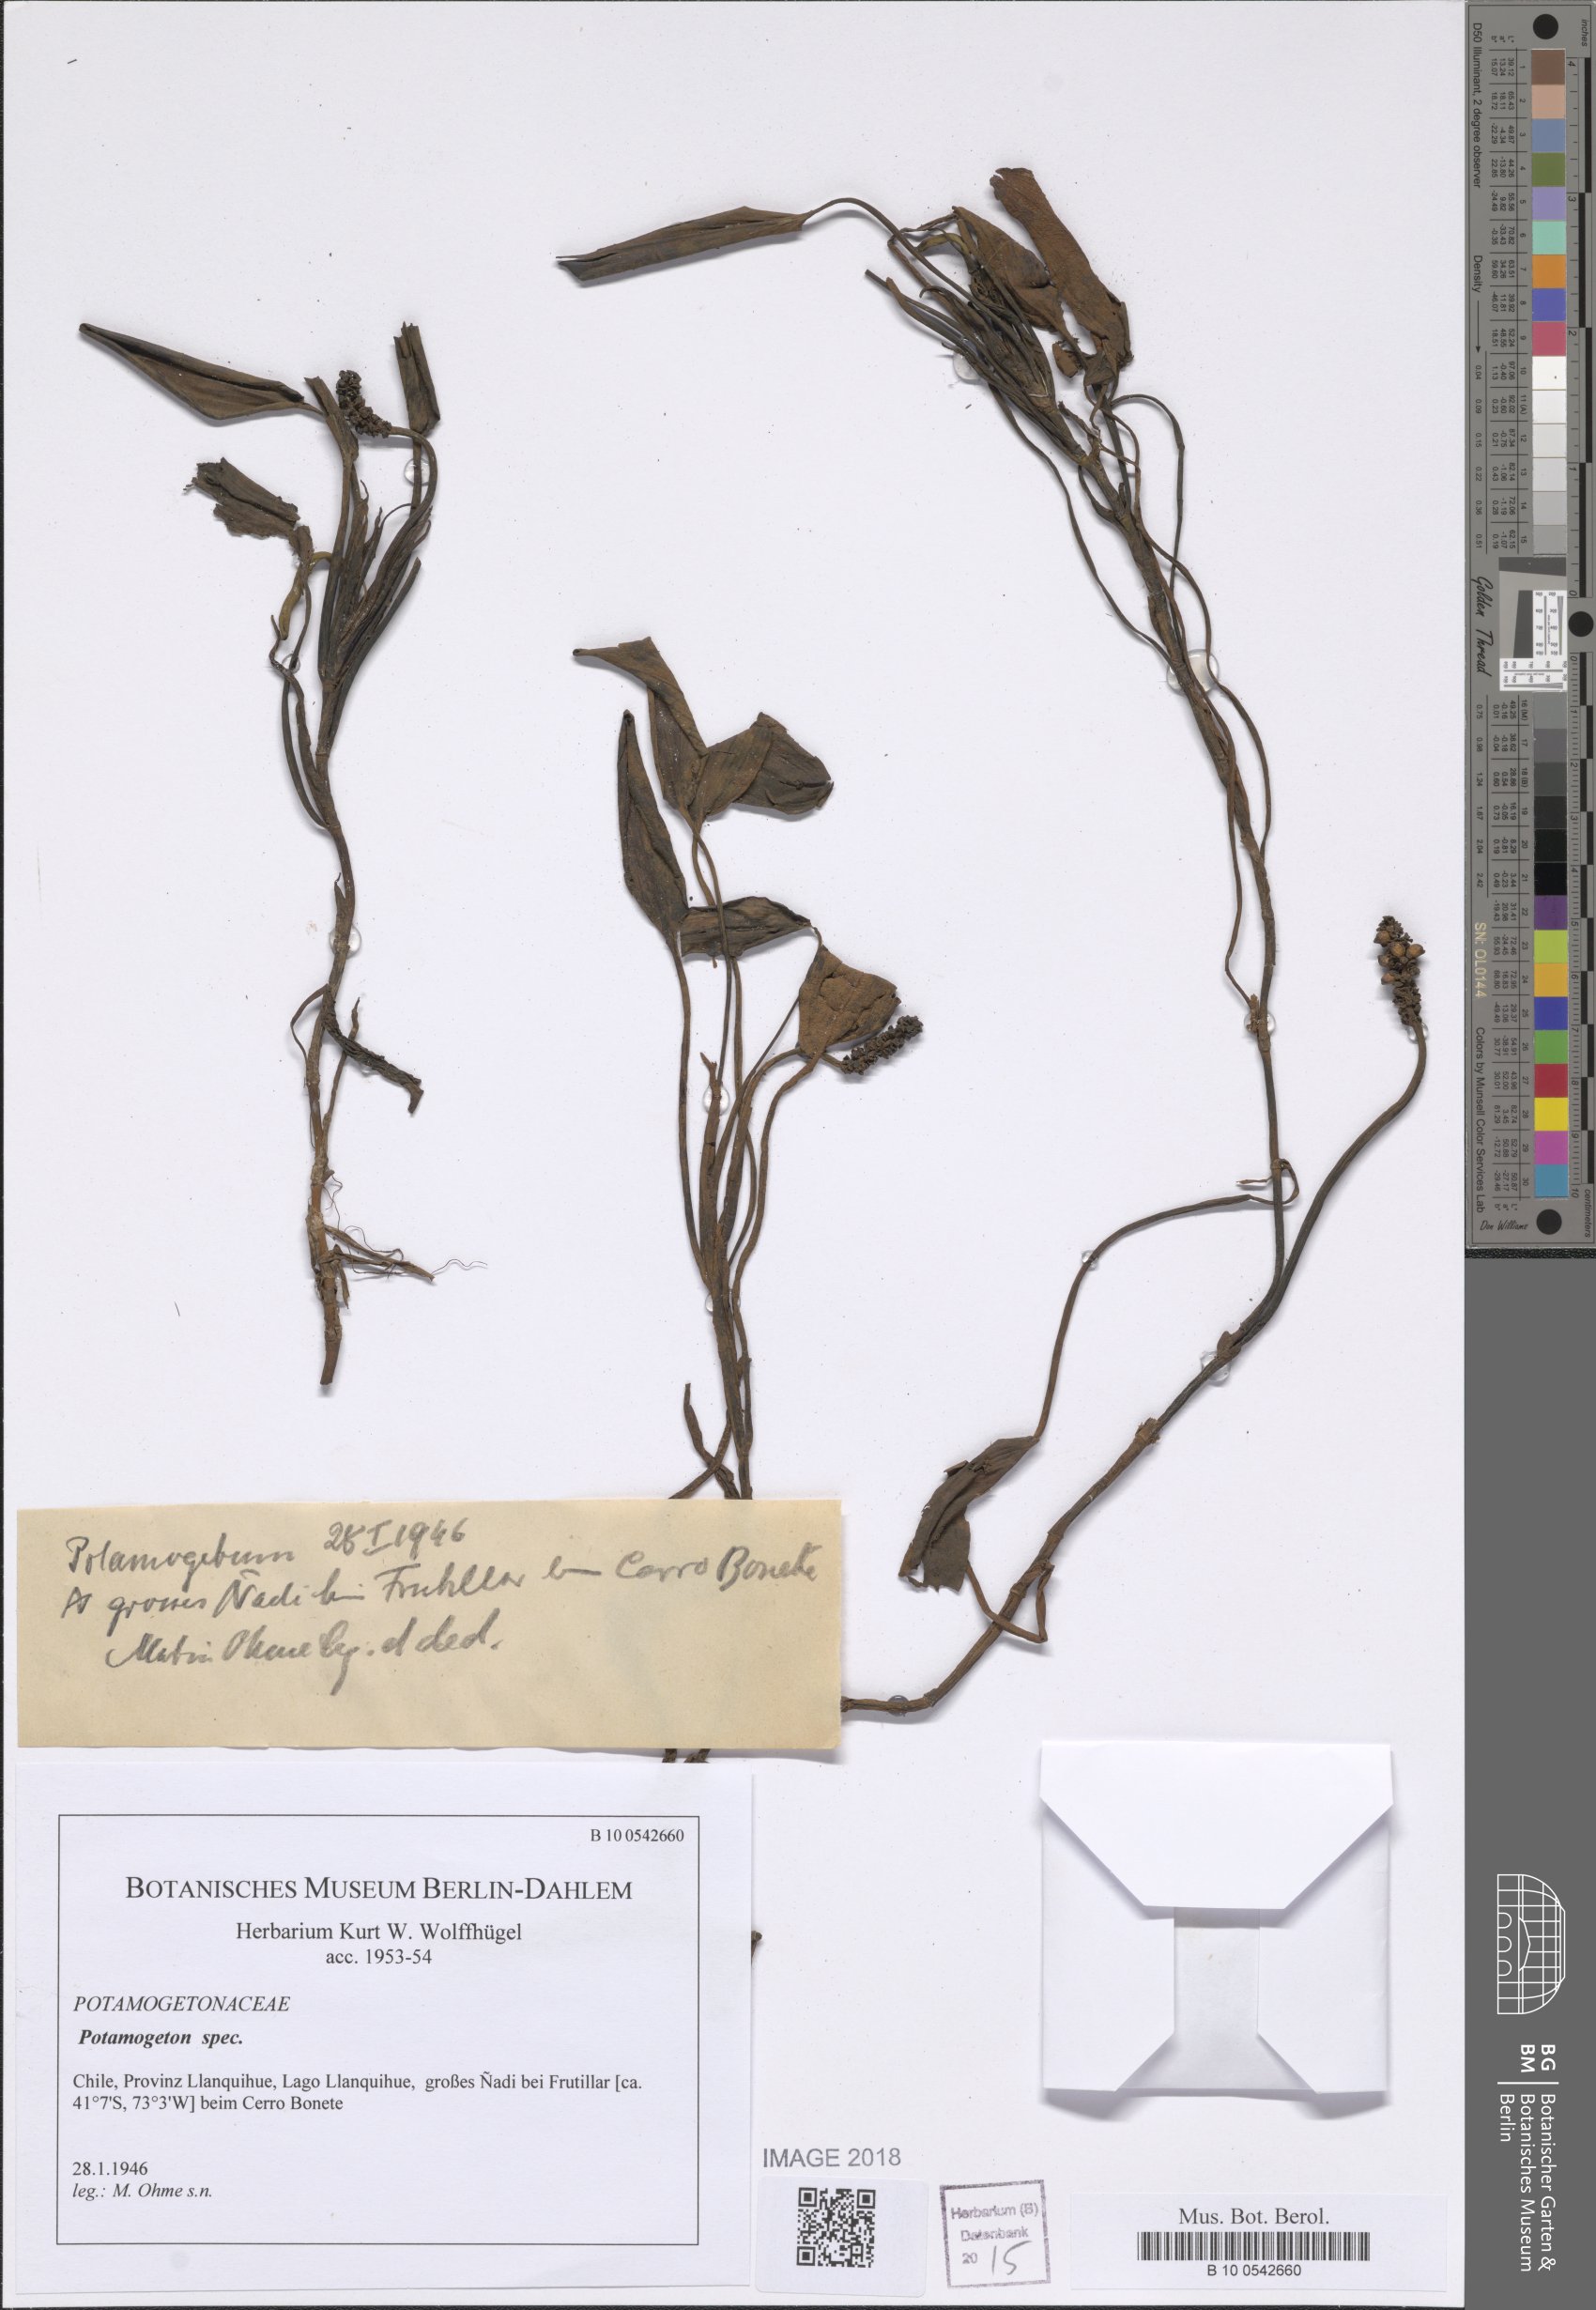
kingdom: Plantae
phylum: Tracheophyta
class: Liliopsida
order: Alismatales
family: Potamogetonaceae
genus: Potamogeton
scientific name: Potamogeton linguatus
